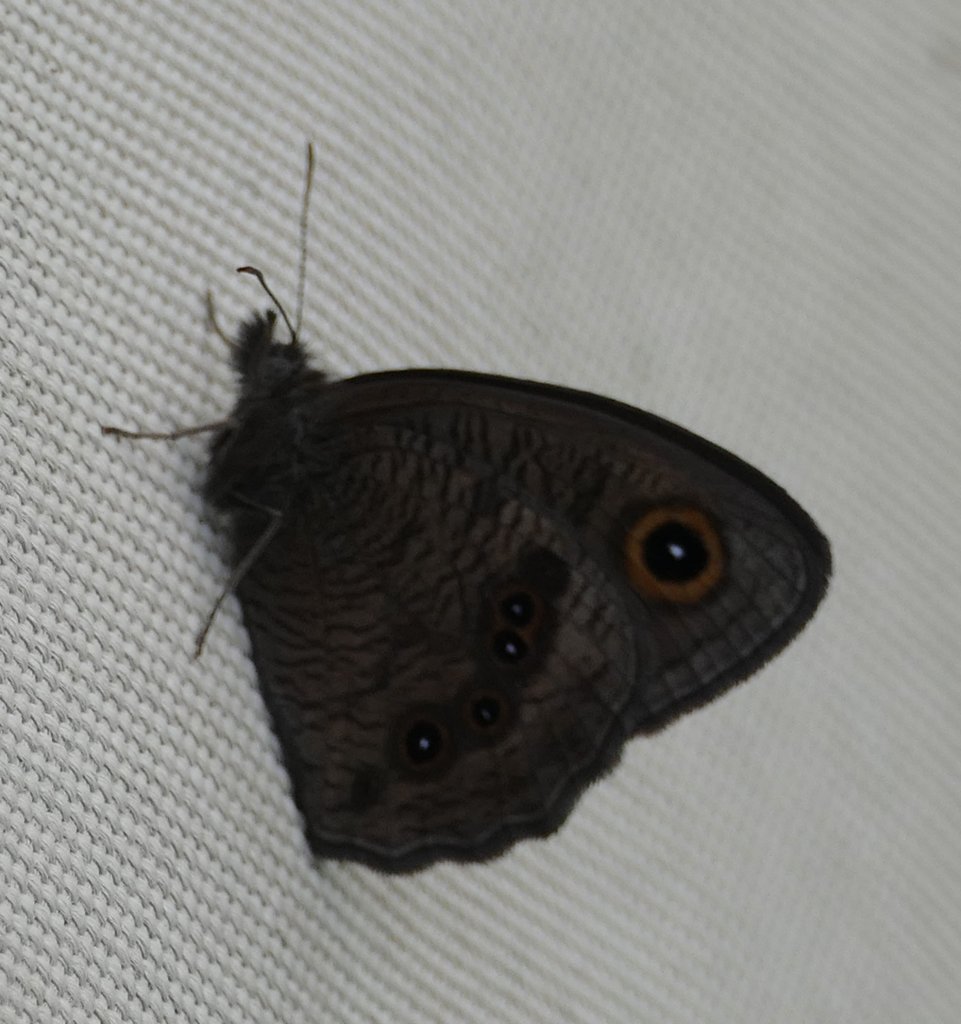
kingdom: Animalia
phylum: Arthropoda
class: Insecta
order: Lepidoptera
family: Nymphalidae
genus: Cercyonis
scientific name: Cercyonis pegala
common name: Common Wood-Nymph
